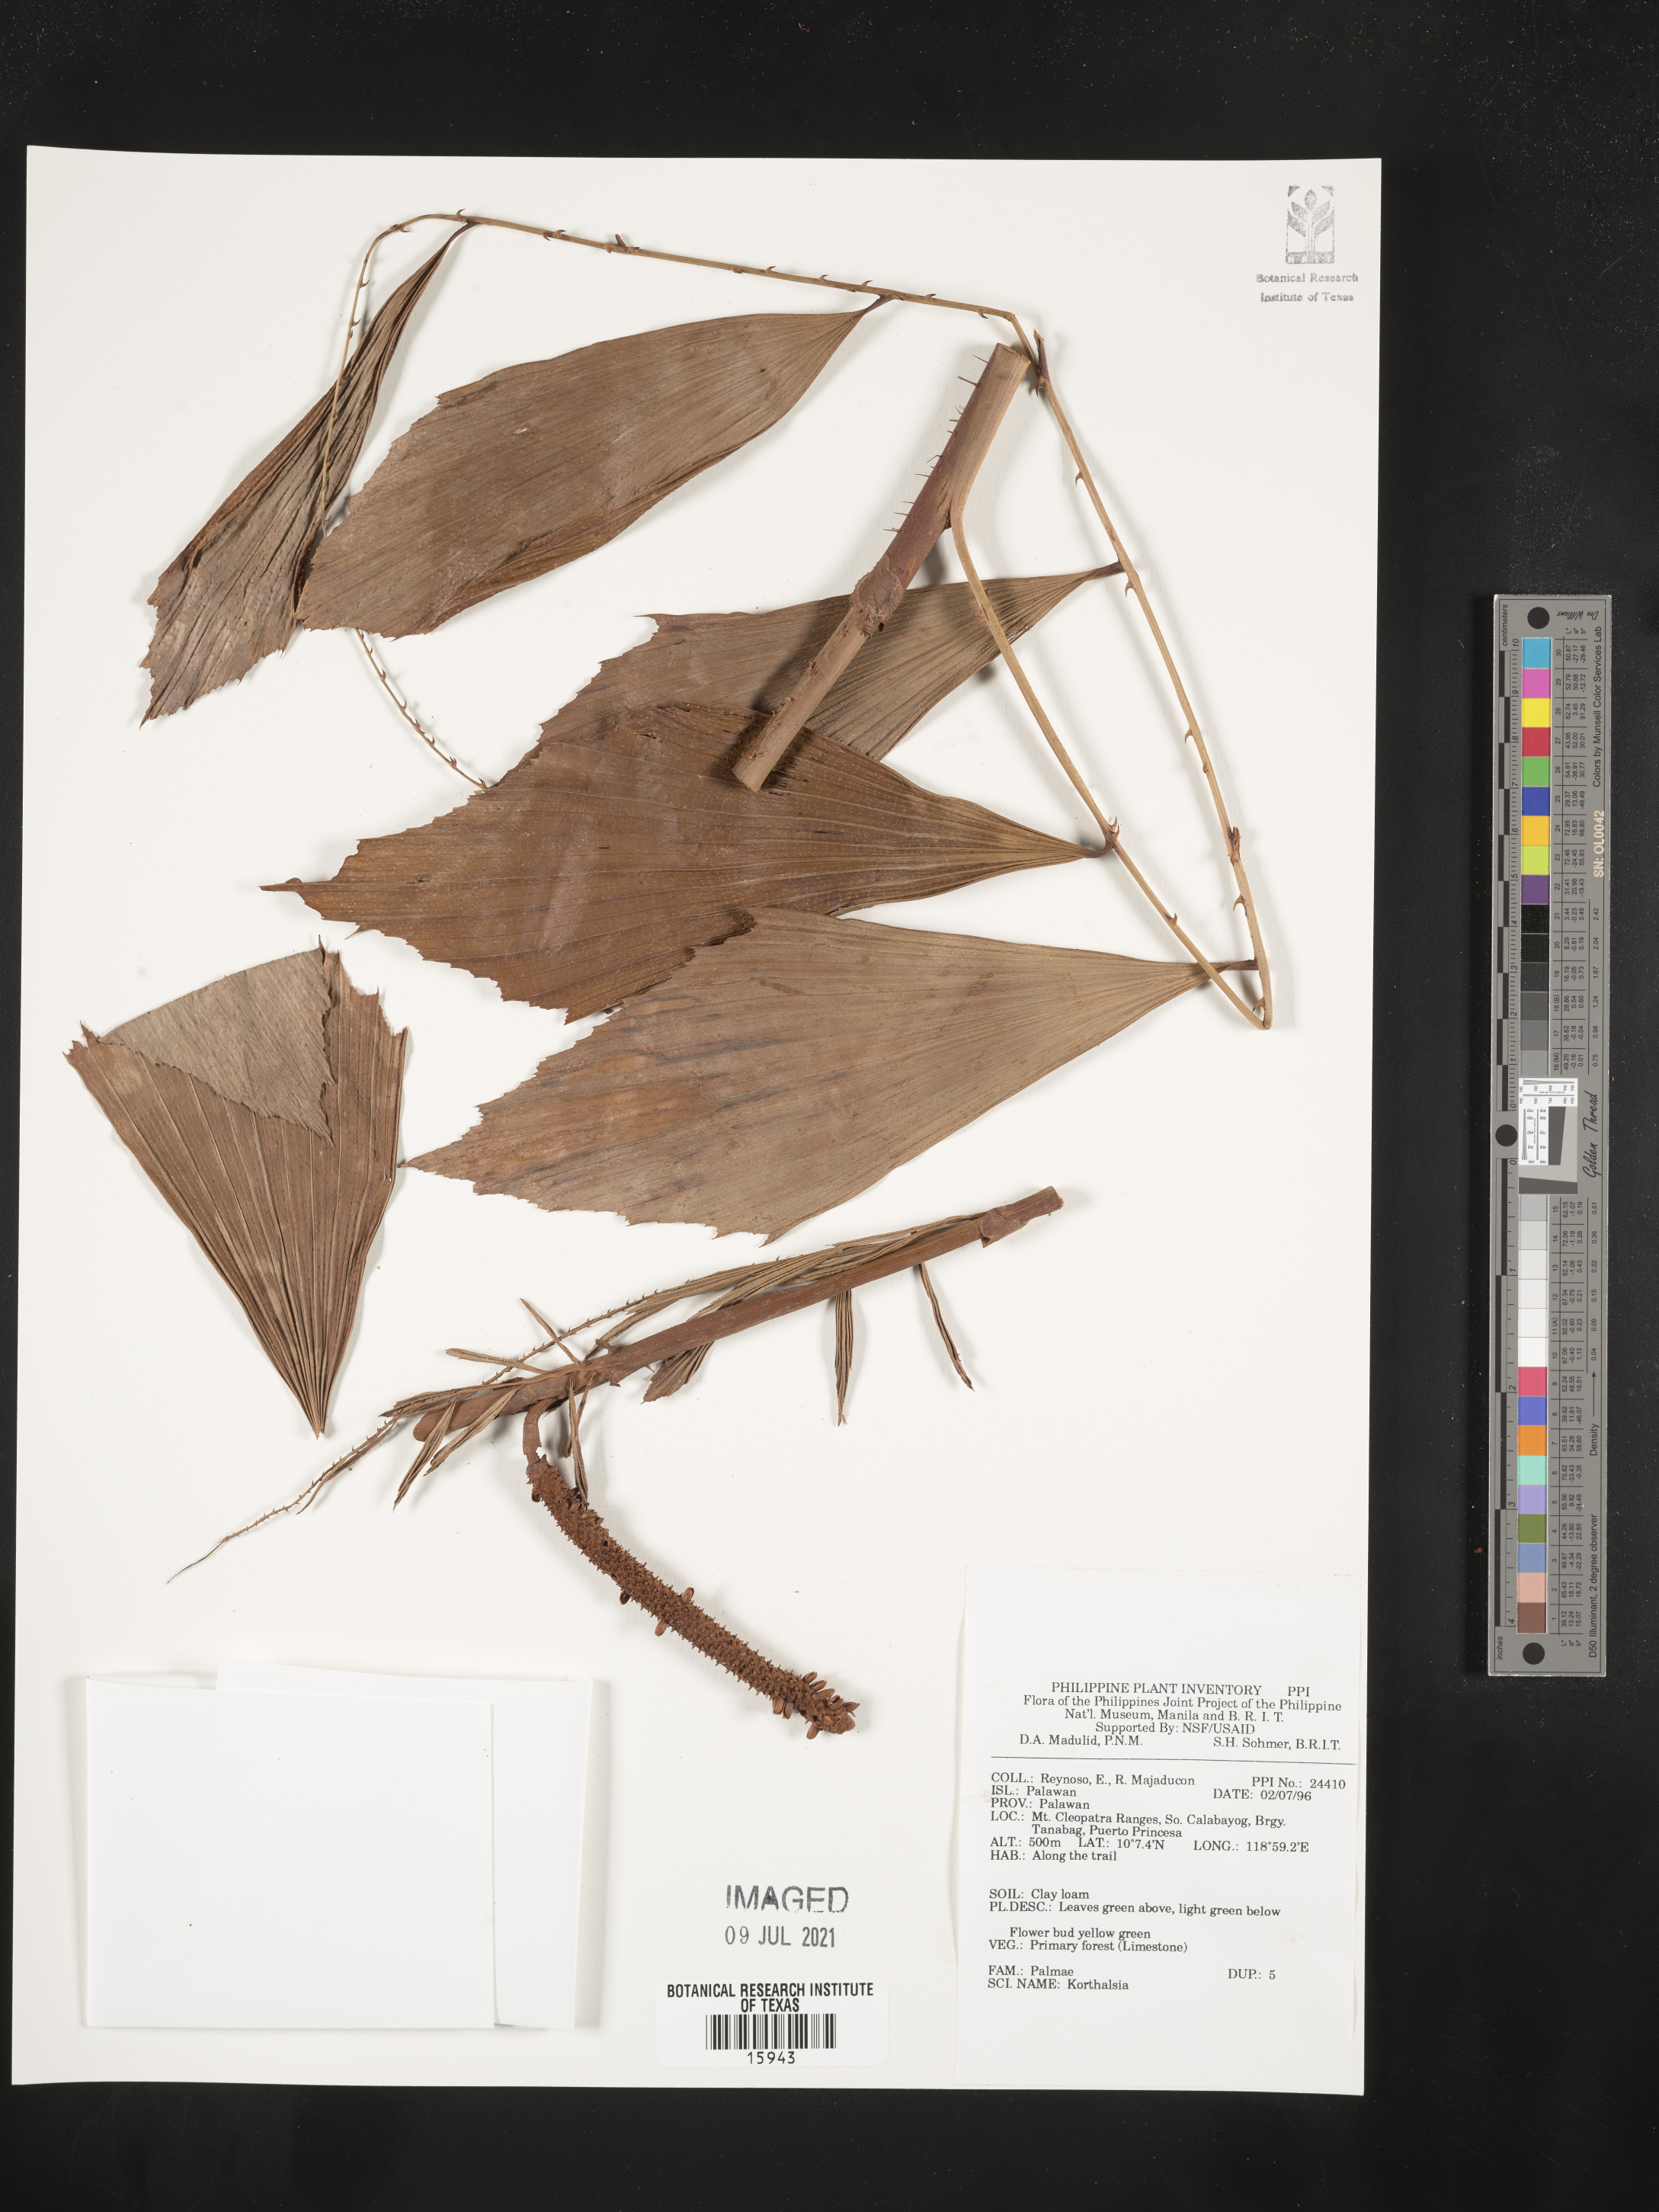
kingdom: Plantae
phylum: Tracheophyta
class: Liliopsida
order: Arecales
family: Arecaceae
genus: Korthalsia
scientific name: Korthalsia
